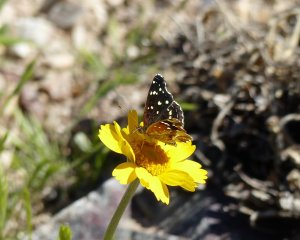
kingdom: Animalia
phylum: Arthropoda
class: Insecta
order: Lepidoptera
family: Nymphalidae
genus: Anthanassa
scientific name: Anthanassa texana
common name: Texan Crescent
